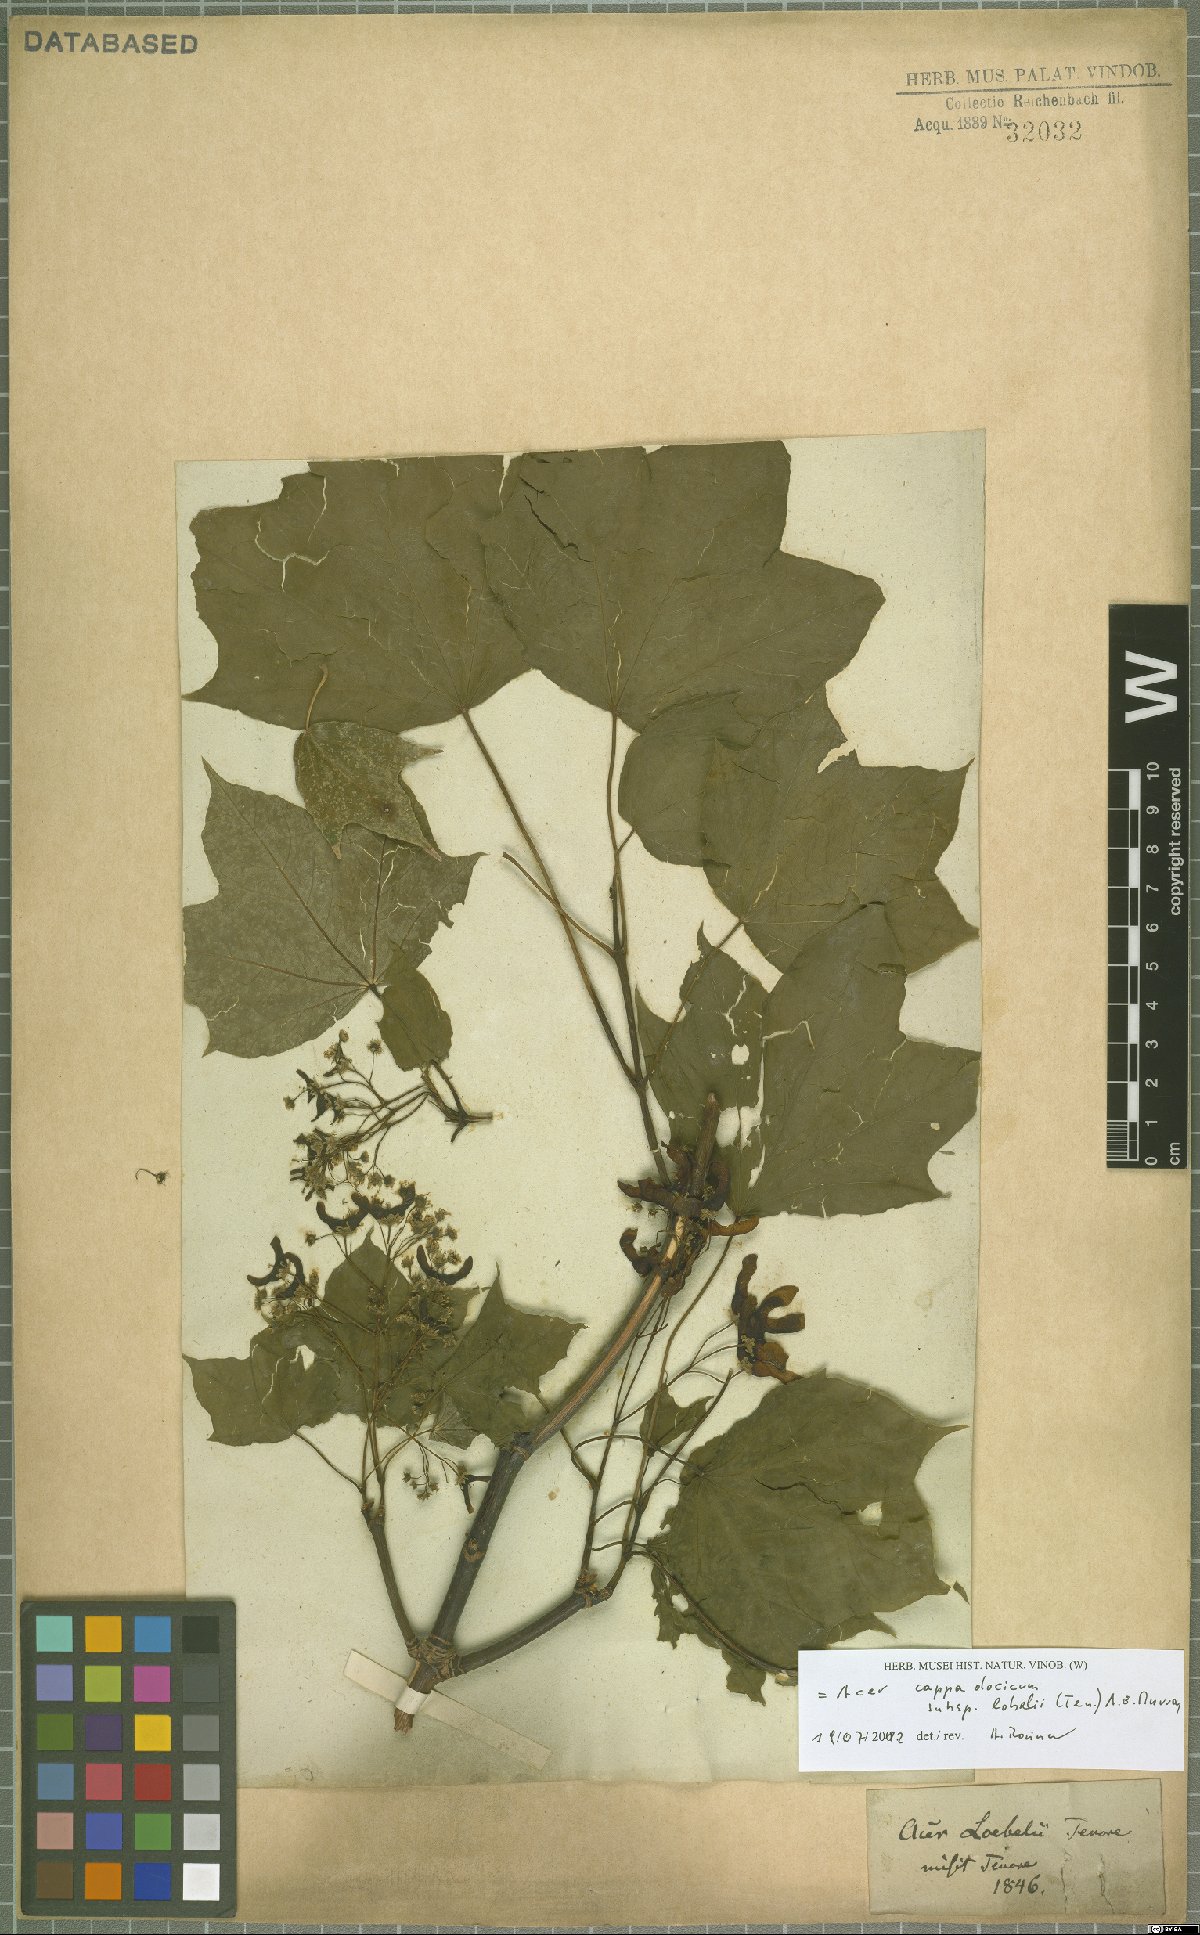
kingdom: Plantae
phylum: Tracheophyta
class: Magnoliopsida
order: Sapindales
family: Sapindaceae
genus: Acer
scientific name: Acer lobelii
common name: Lobel's maple
